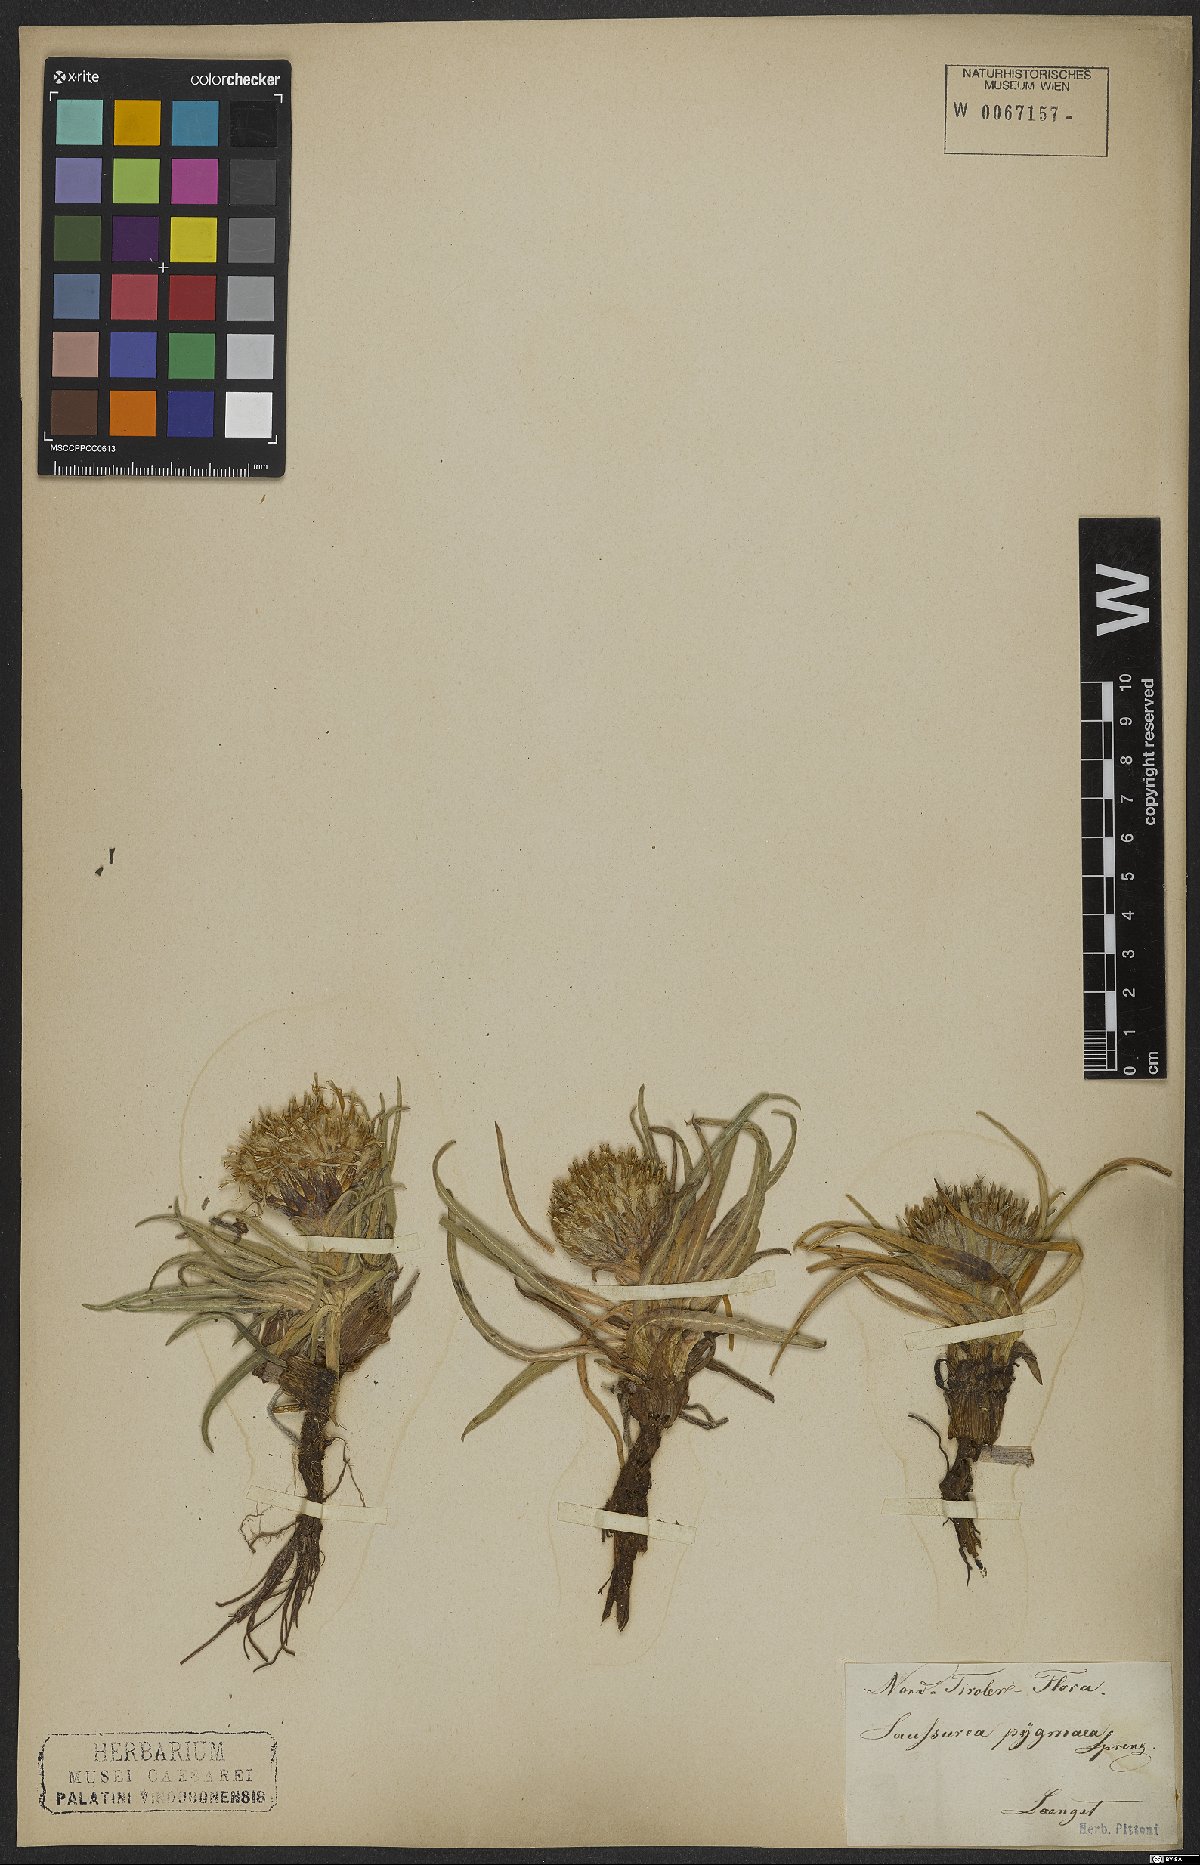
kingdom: Plantae
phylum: Tracheophyta
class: Magnoliopsida
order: Asterales
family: Asteraceae
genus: Saussurea
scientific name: Saussurea pygmaea
